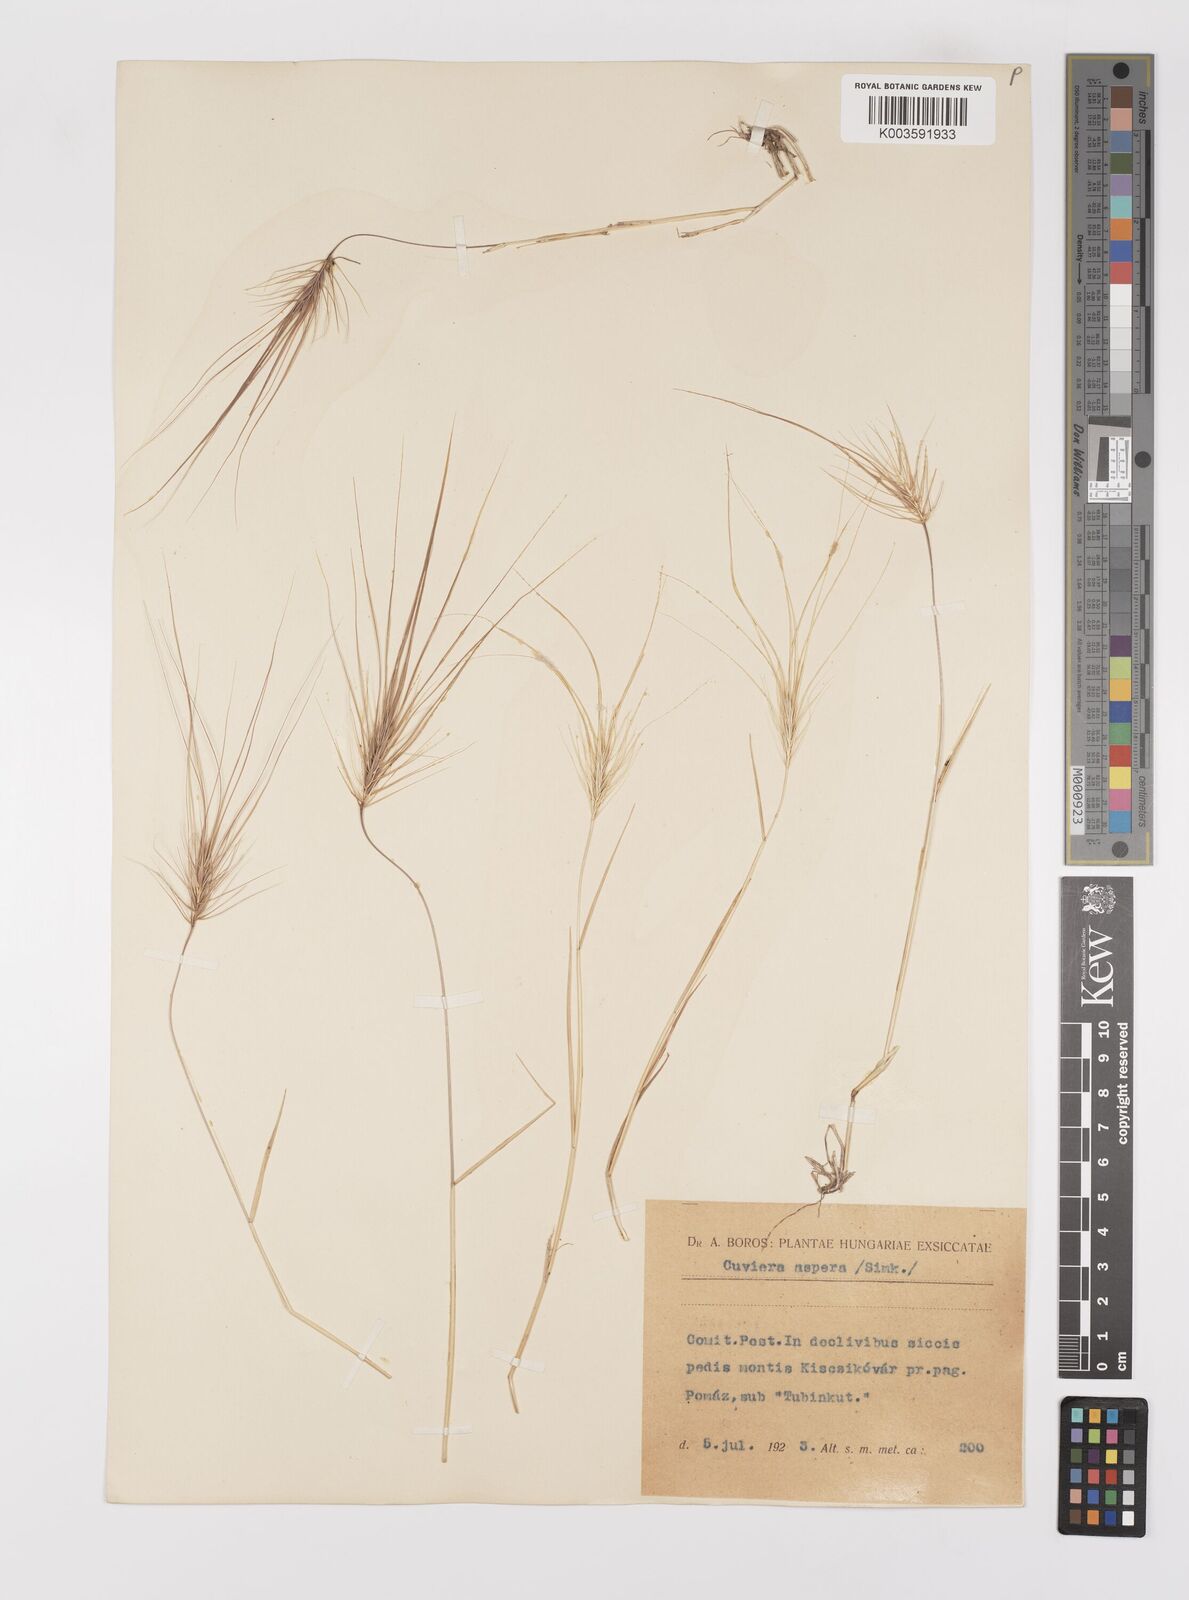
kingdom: Plantae
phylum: Tracheophyta
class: Liliopsida
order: Poales
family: Poaceae
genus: Taeniatherum
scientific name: Taeniatherum caput-medusae
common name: Medusahead
